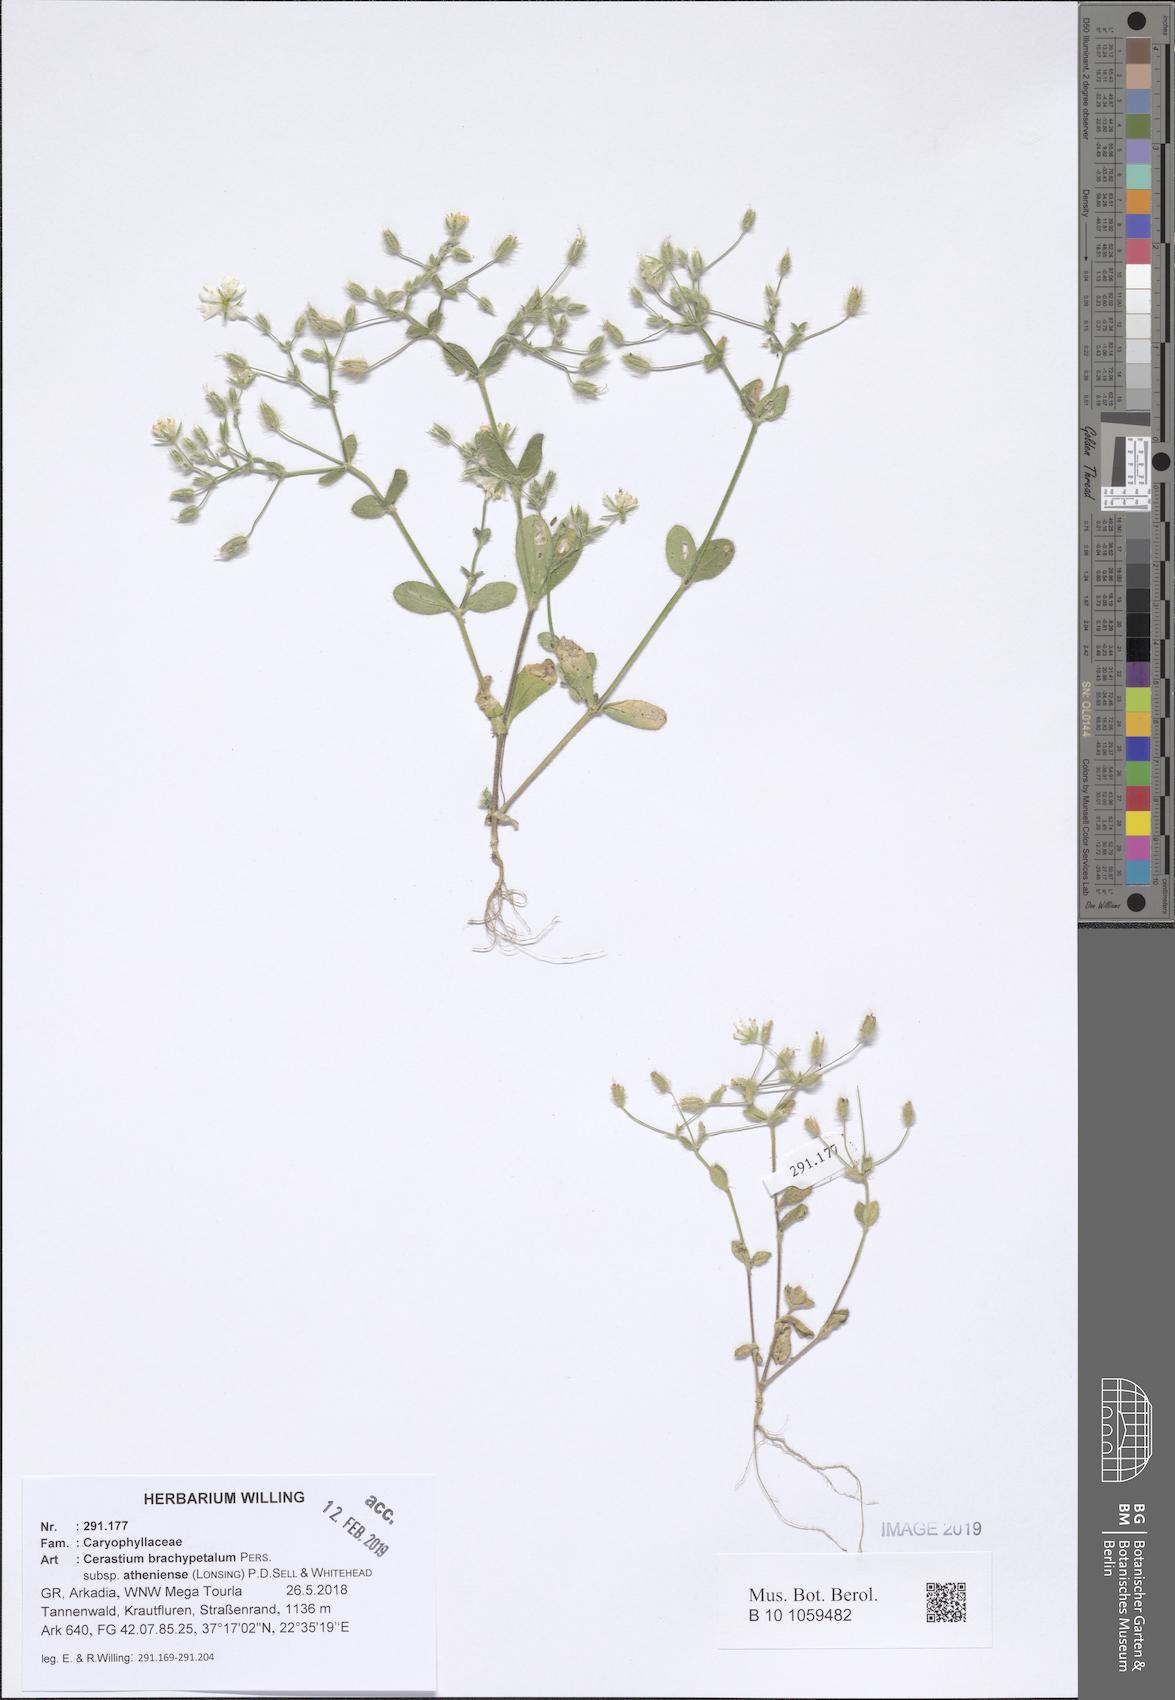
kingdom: Plantae
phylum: Tracheophyta
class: Magnoliopsida
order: Caryophyllales
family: Caryophyllaceae
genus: Cerastium
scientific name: Cerastium brachypetalum
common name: Grey mouse-ear
